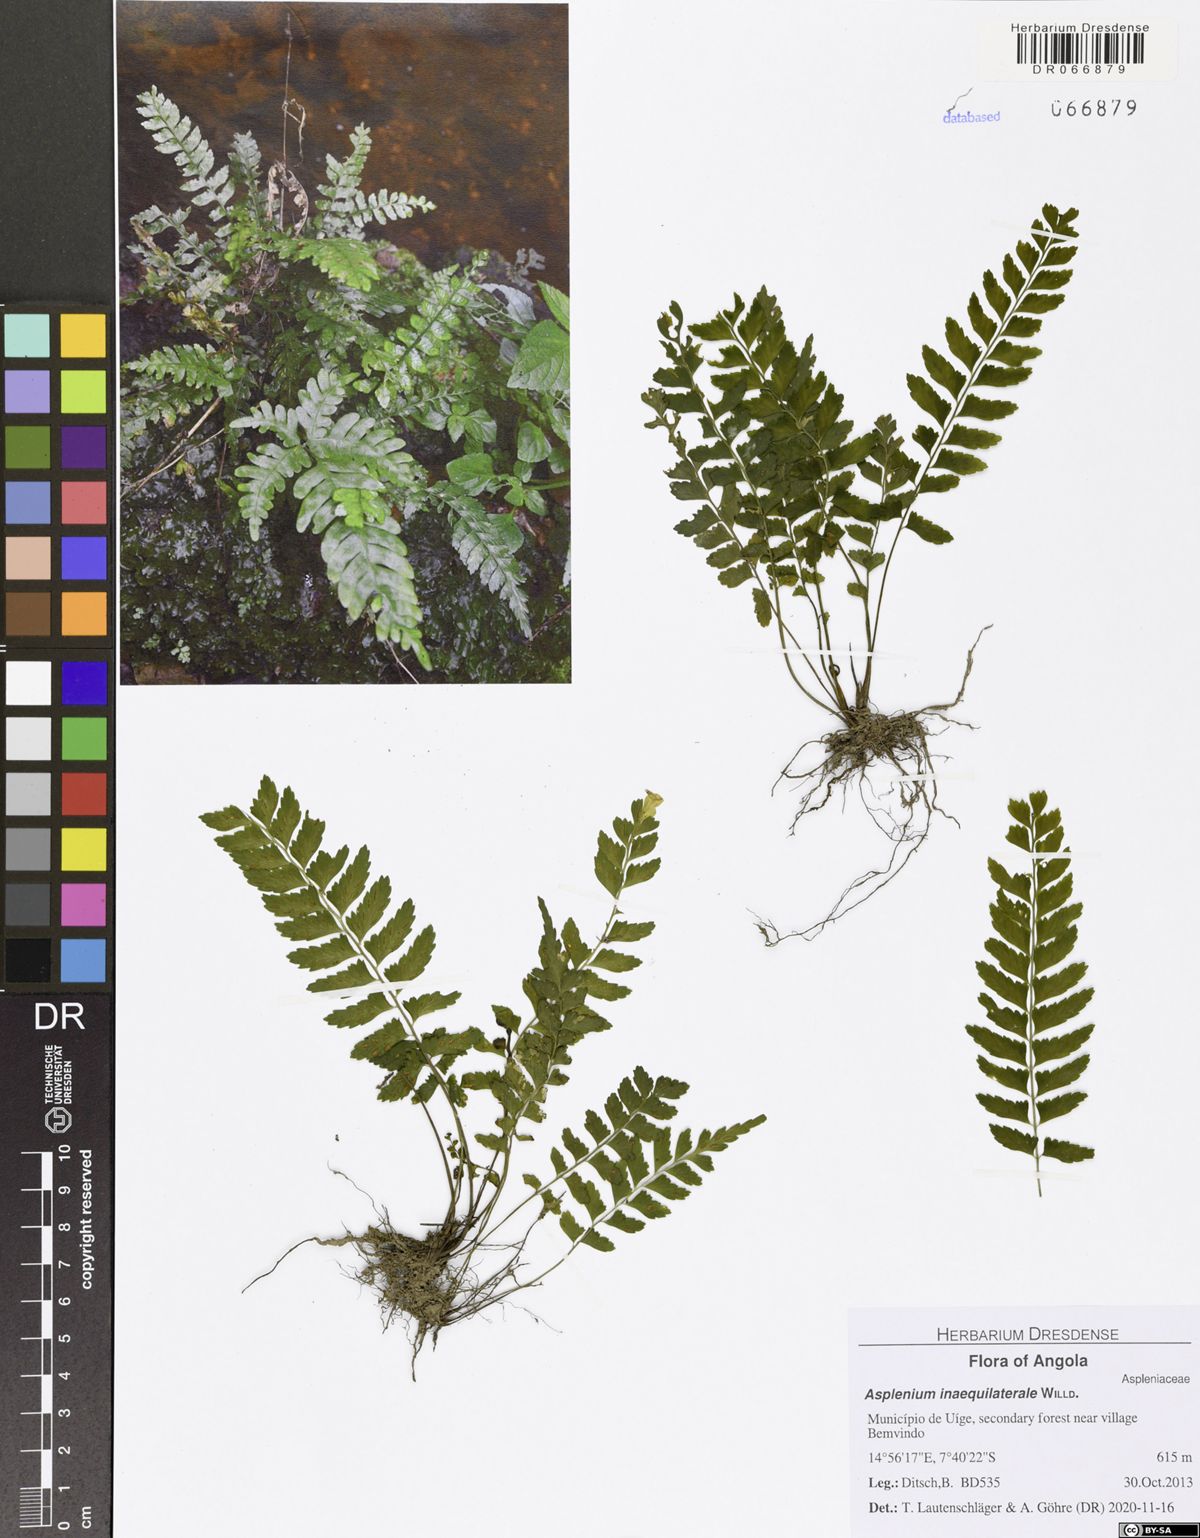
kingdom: Plantae
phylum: Tracheophyta
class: Polypodiopsida
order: Polypodiales
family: Aspleniaceae
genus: Asplenium
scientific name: Asplenium inaequilaterale
